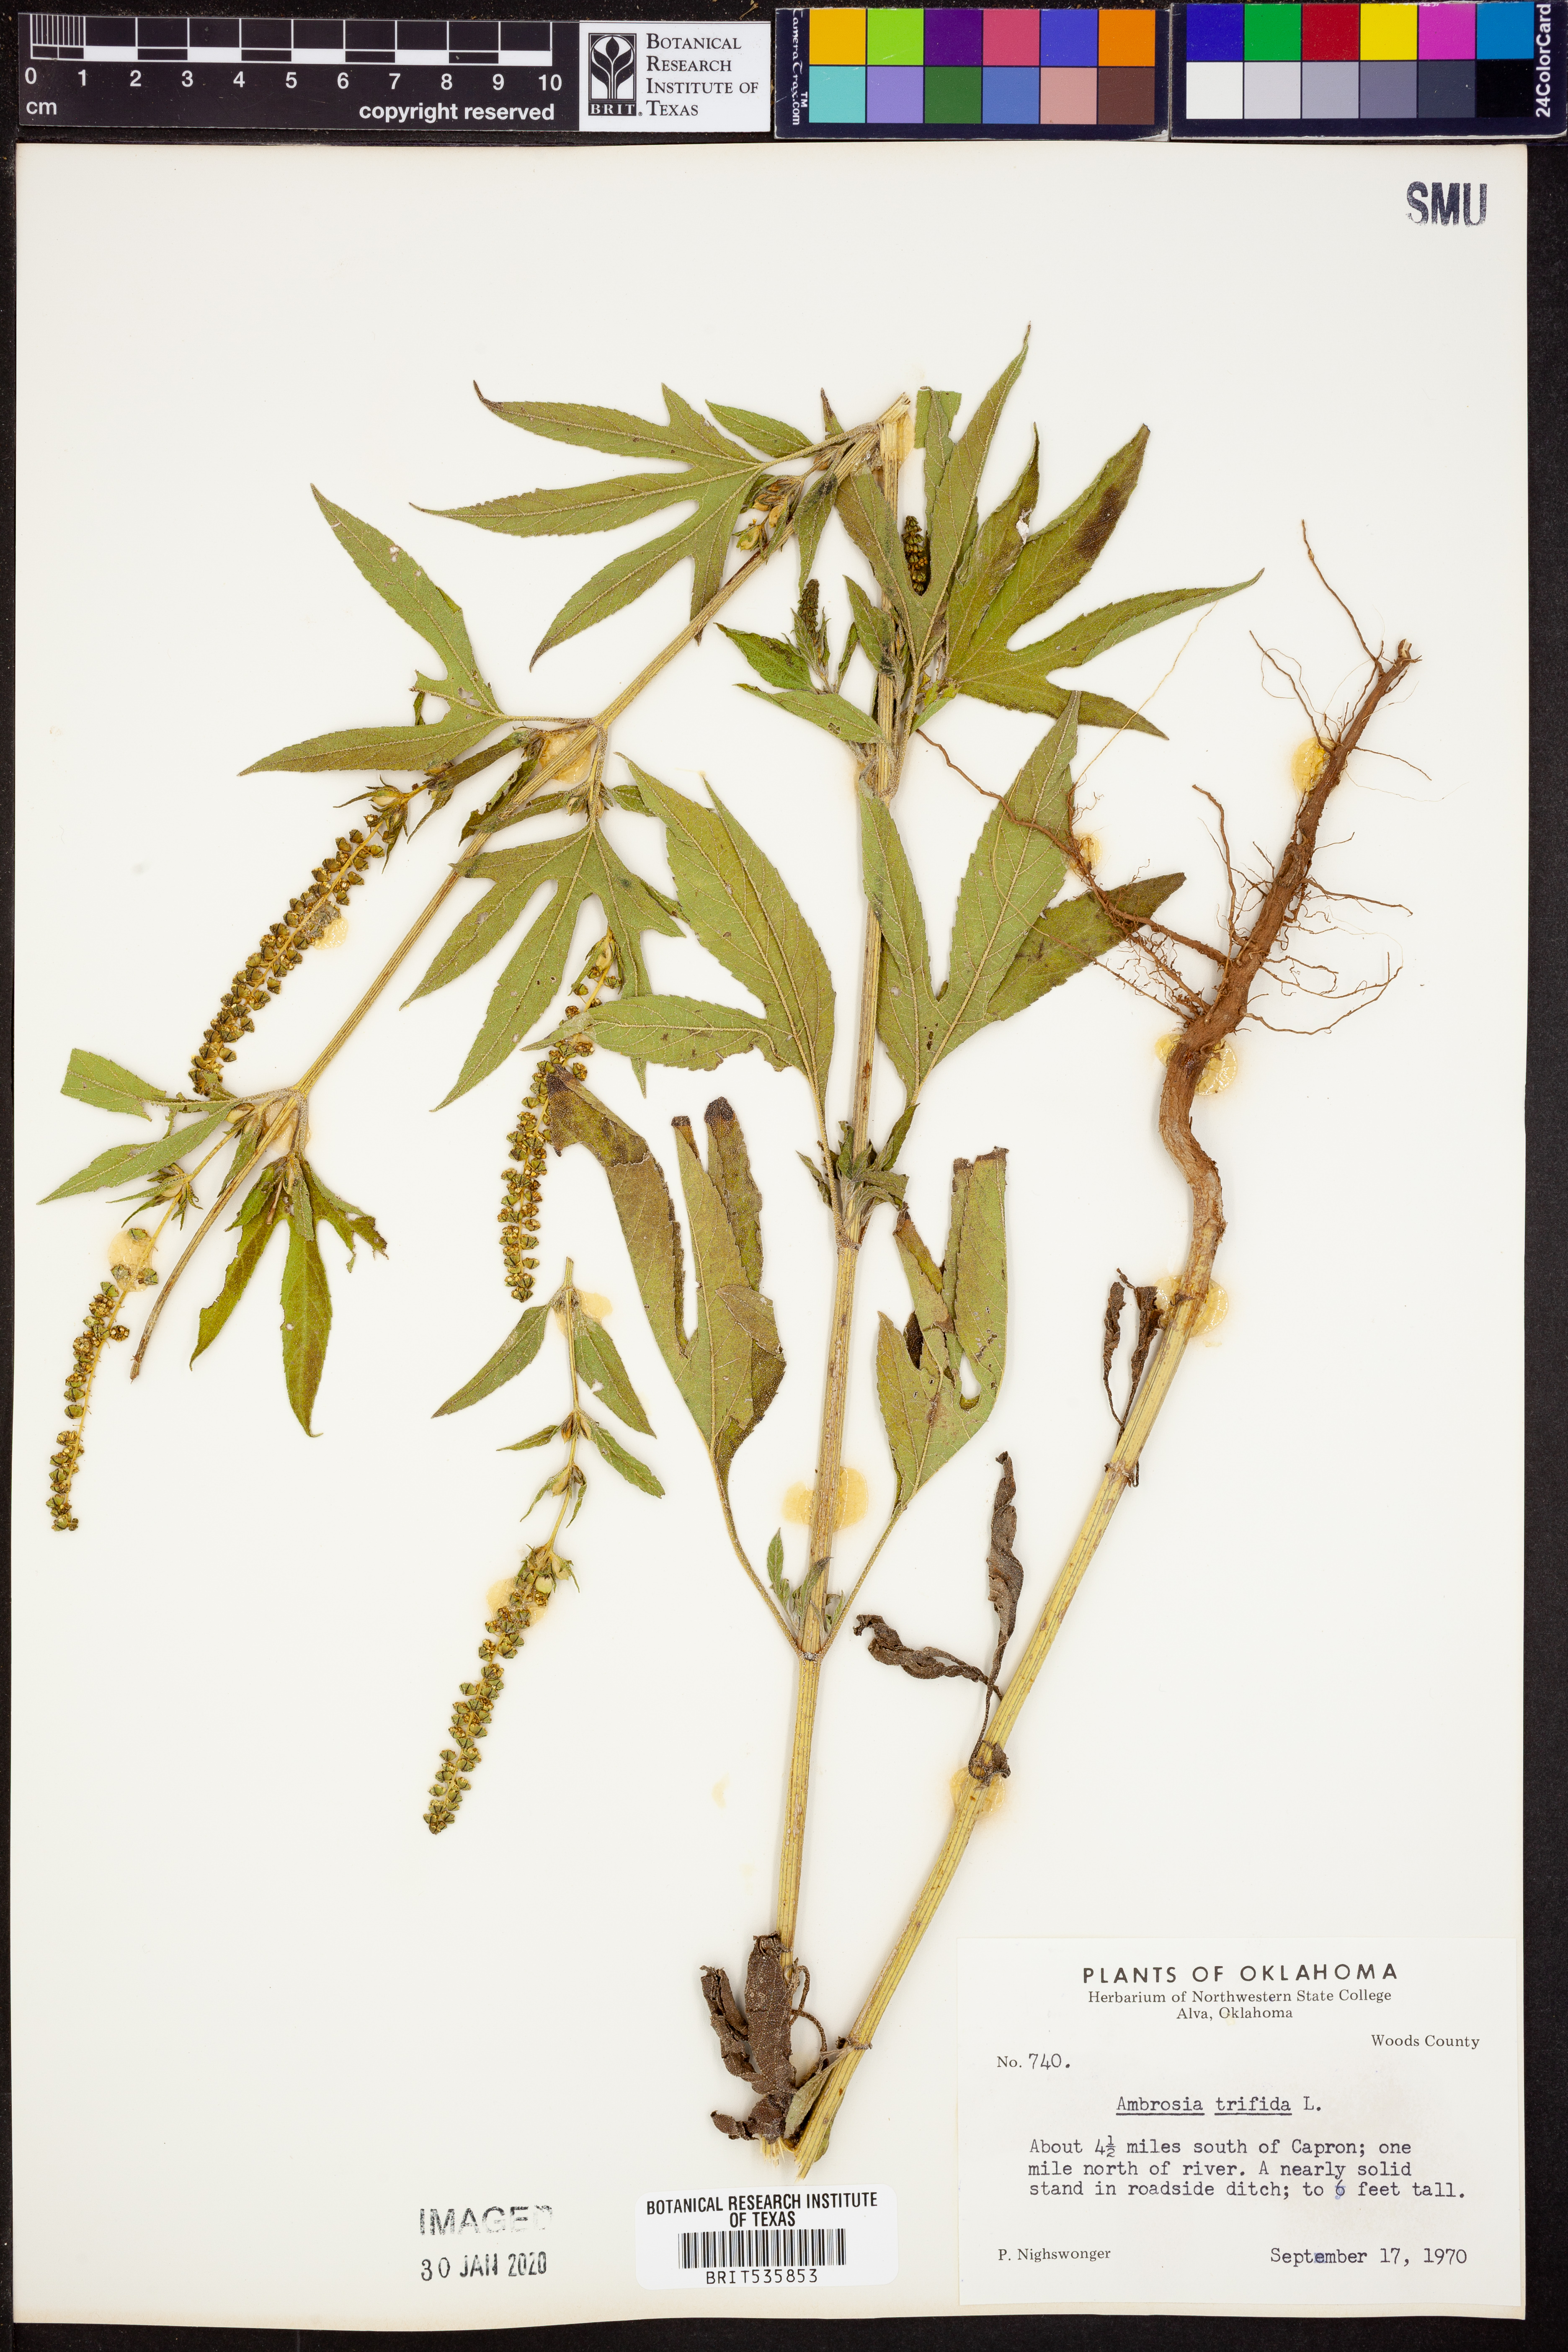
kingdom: Plantae
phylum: Tracheophyta
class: Magnoliopsida
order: Asterales
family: Asteraceae
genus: Ambrosia
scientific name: Ambrosia trifida
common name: Giant ragweed
